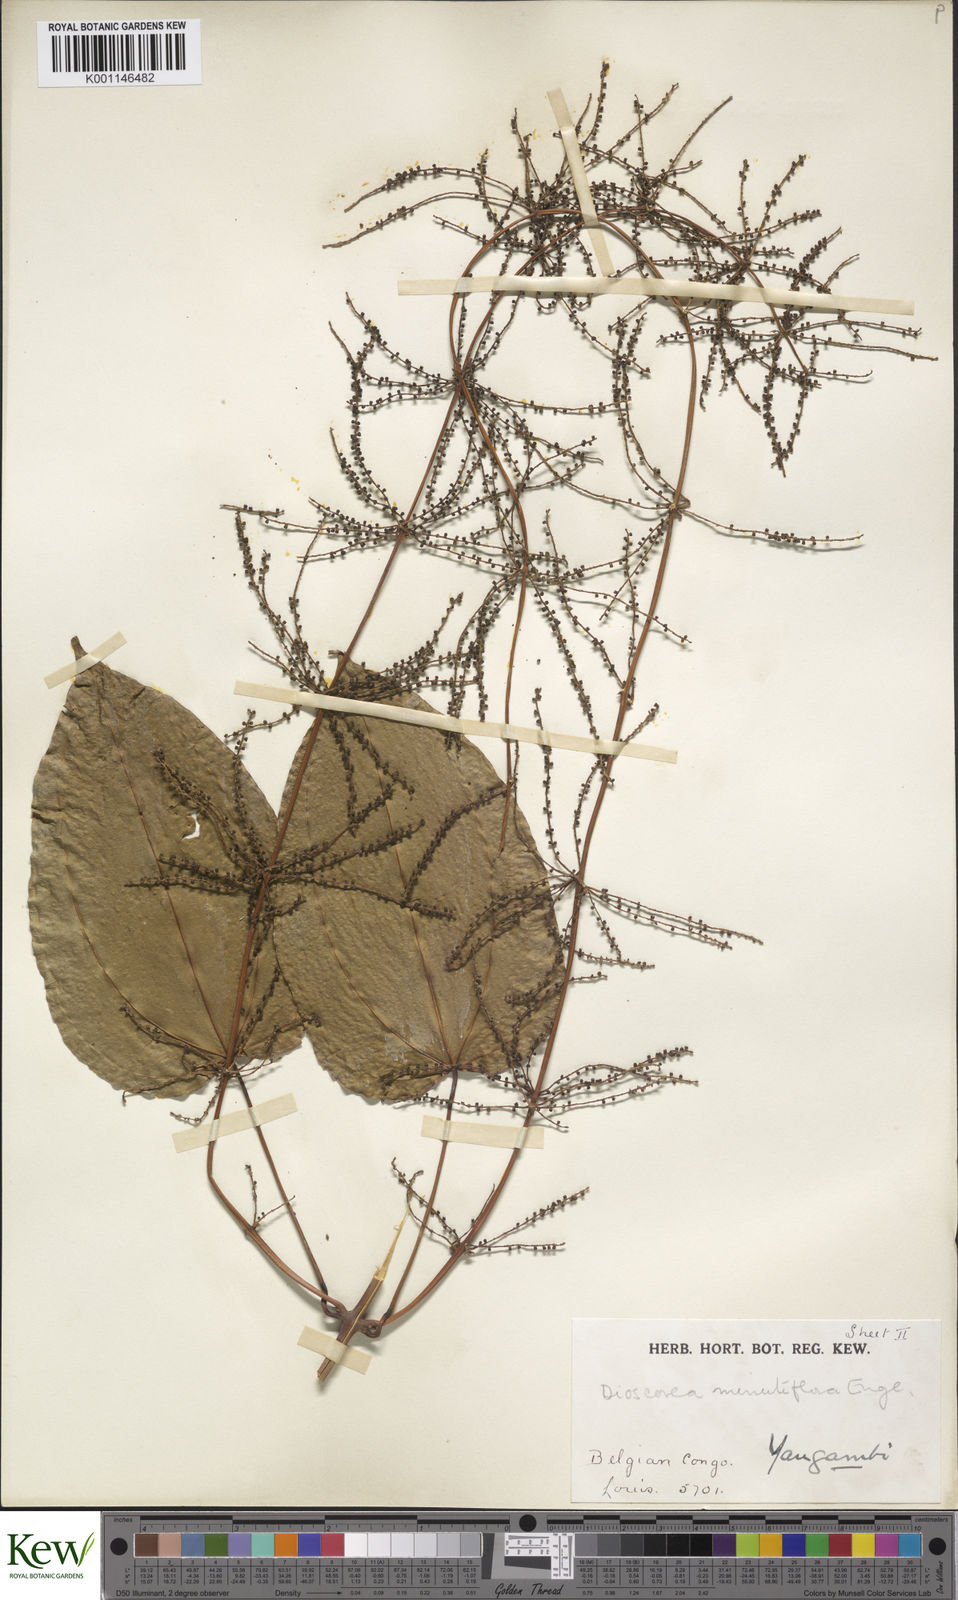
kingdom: Plantae
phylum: Tracheophyta
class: Liliopsida
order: Dioscoreales
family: Dioscoreaceae
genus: Dioscorea
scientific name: Dioscorea minutiflora
